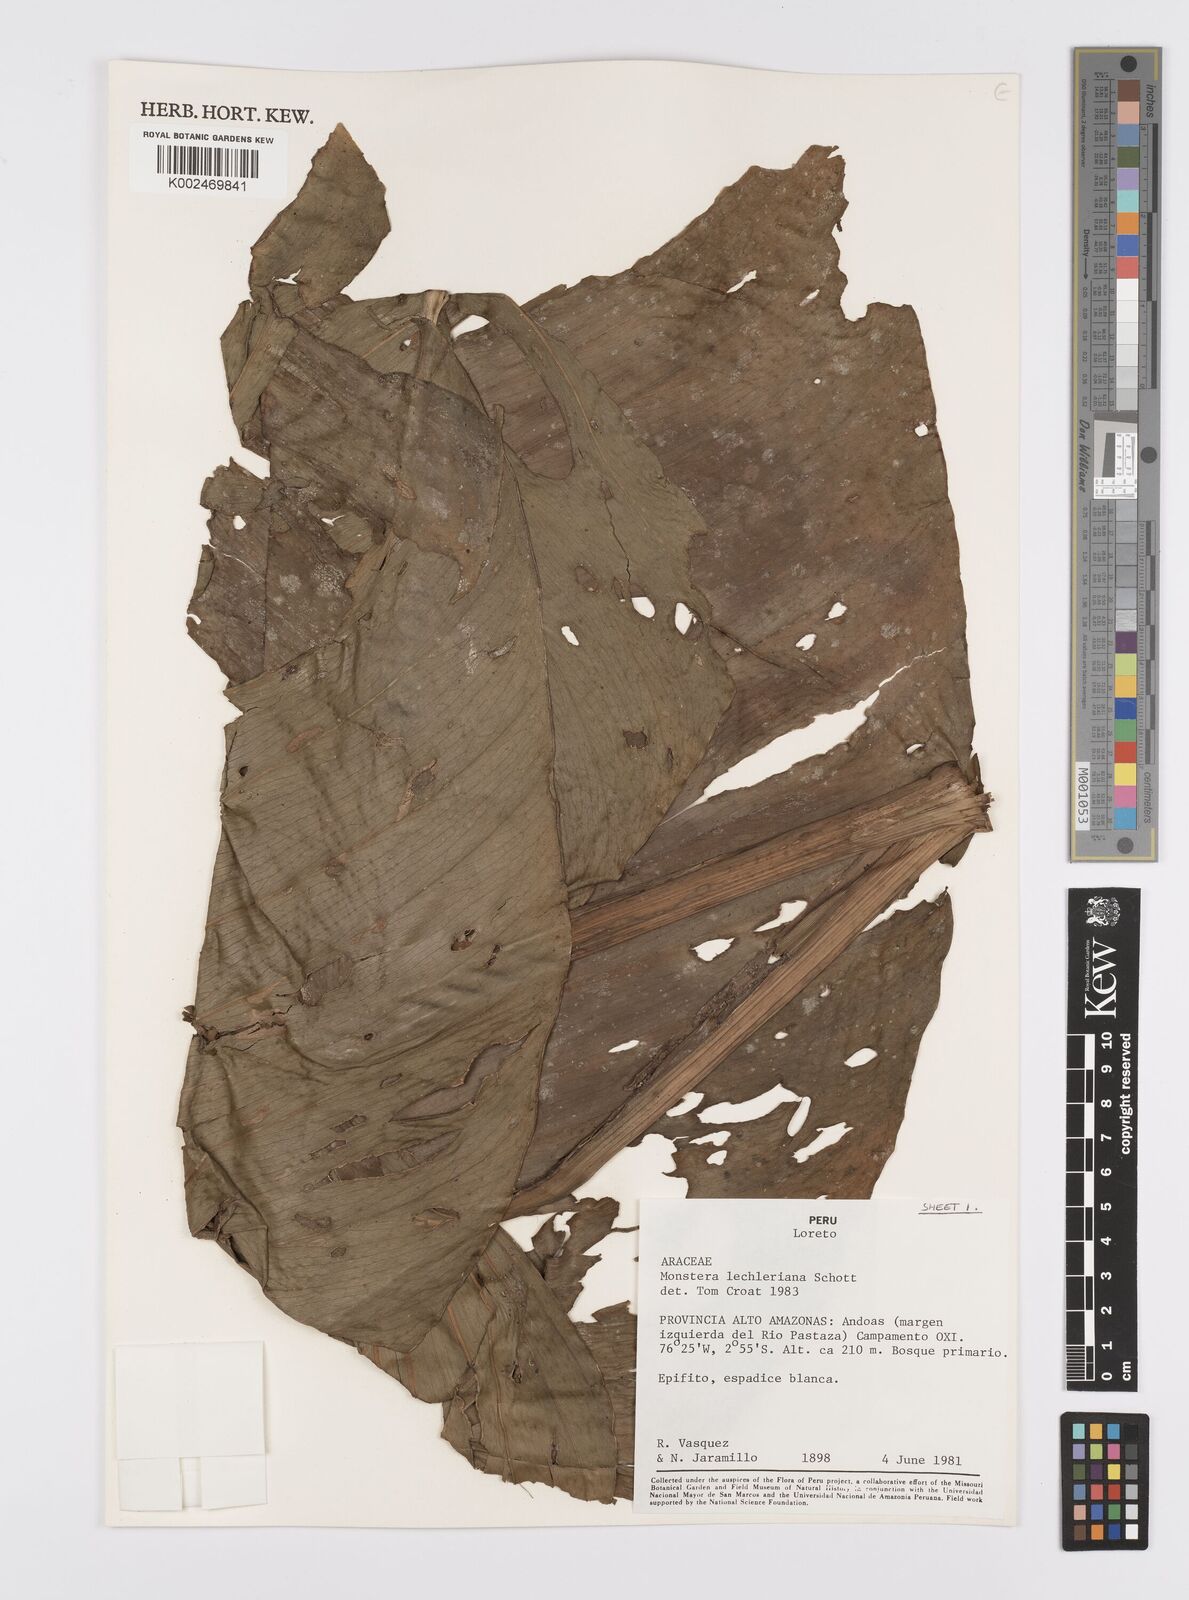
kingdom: Plantae
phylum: Tracheophyta
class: Liliopsida
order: Alismatales
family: Araceae
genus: Monstera
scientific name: Monstera lechleriana
